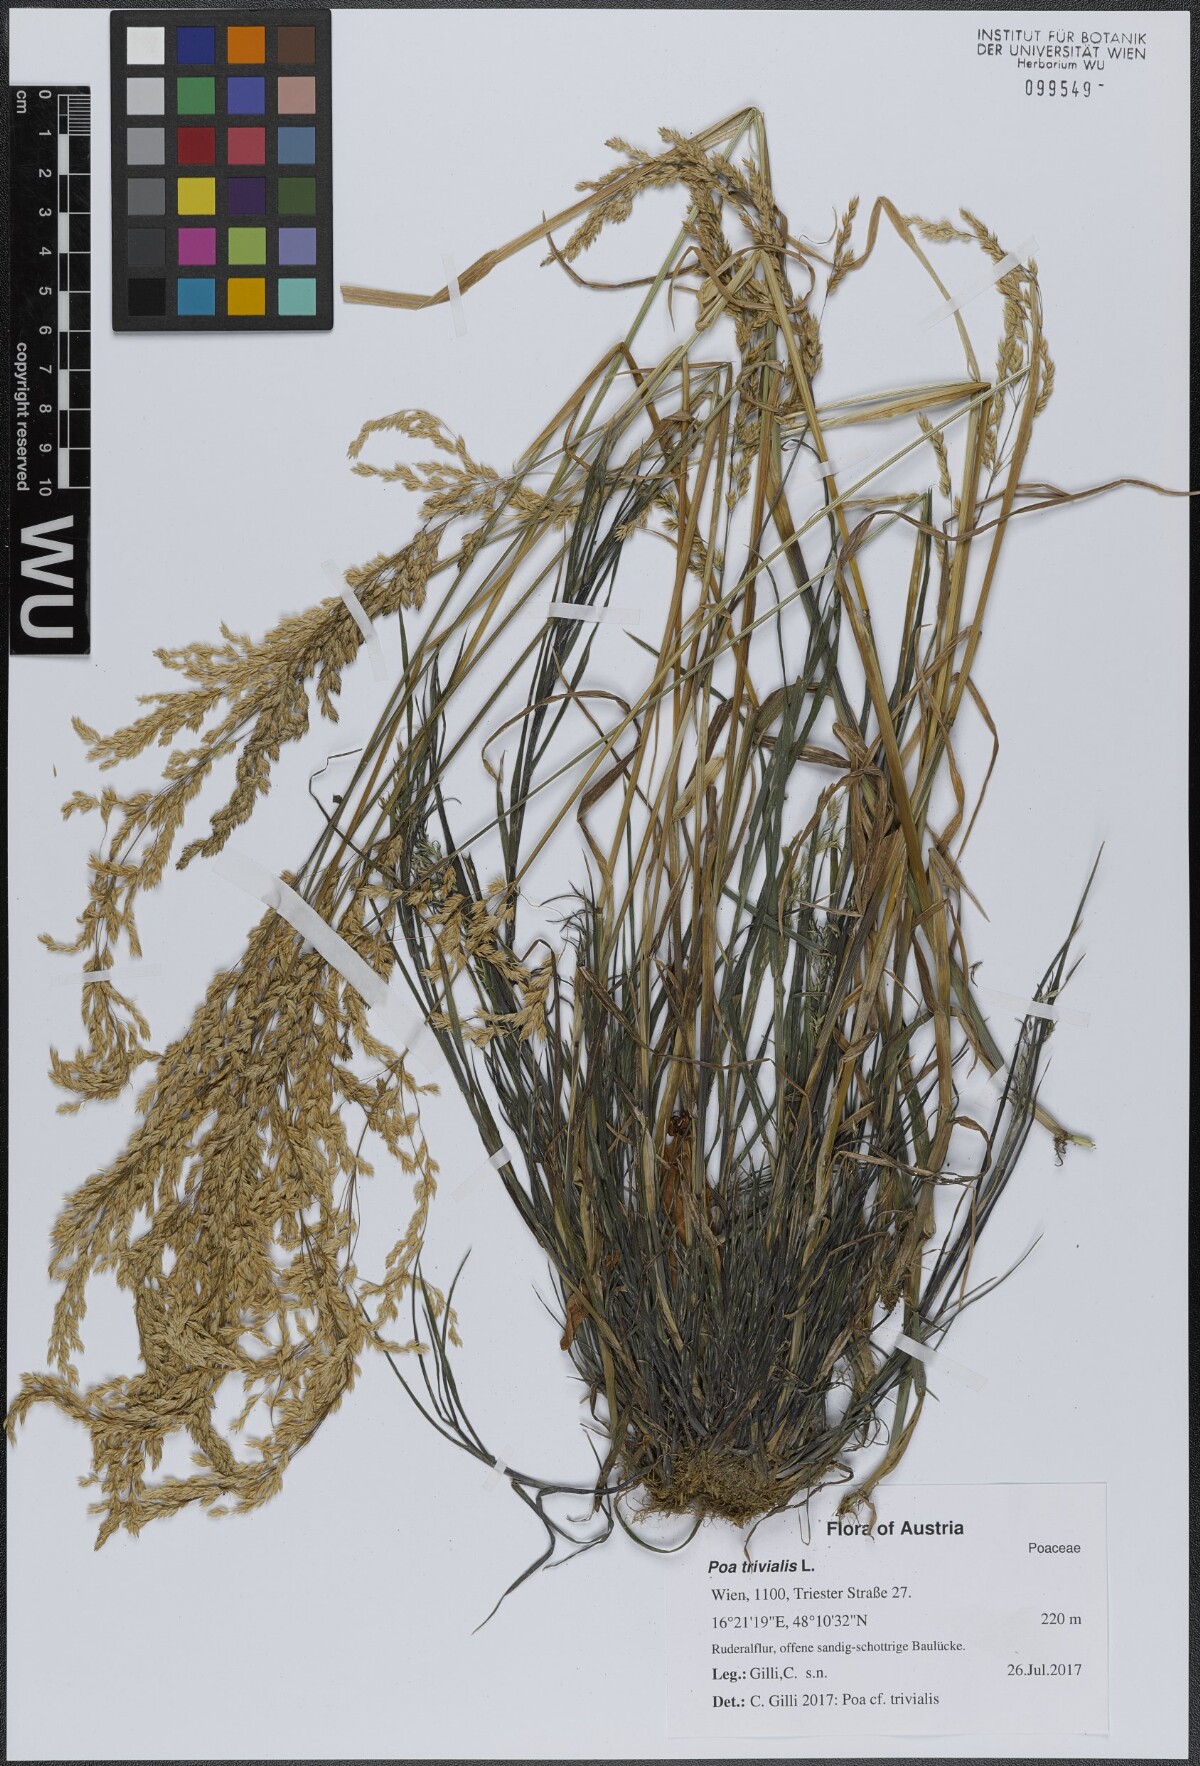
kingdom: Plantae
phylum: Tracheophyta
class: Liliopsida
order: Poales
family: Poaceae
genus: Poa
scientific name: Poa trivialis
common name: Rough bluegrass
